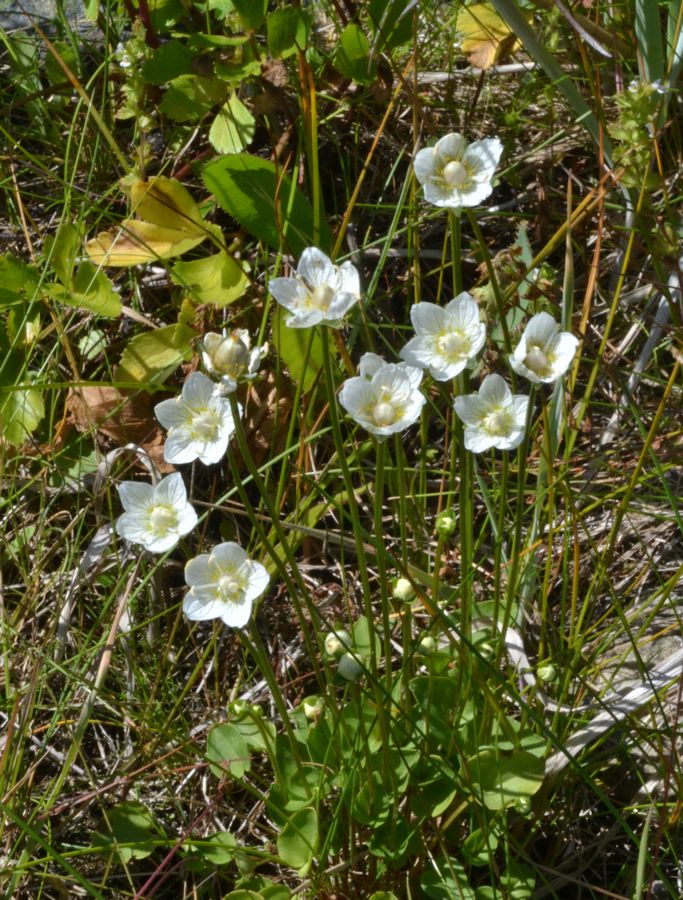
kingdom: Plantae
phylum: Tracheophyta
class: Magnoliopsida
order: Celastrales
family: Parnassiaceae
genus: Parnassia
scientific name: Parnassia palustris
